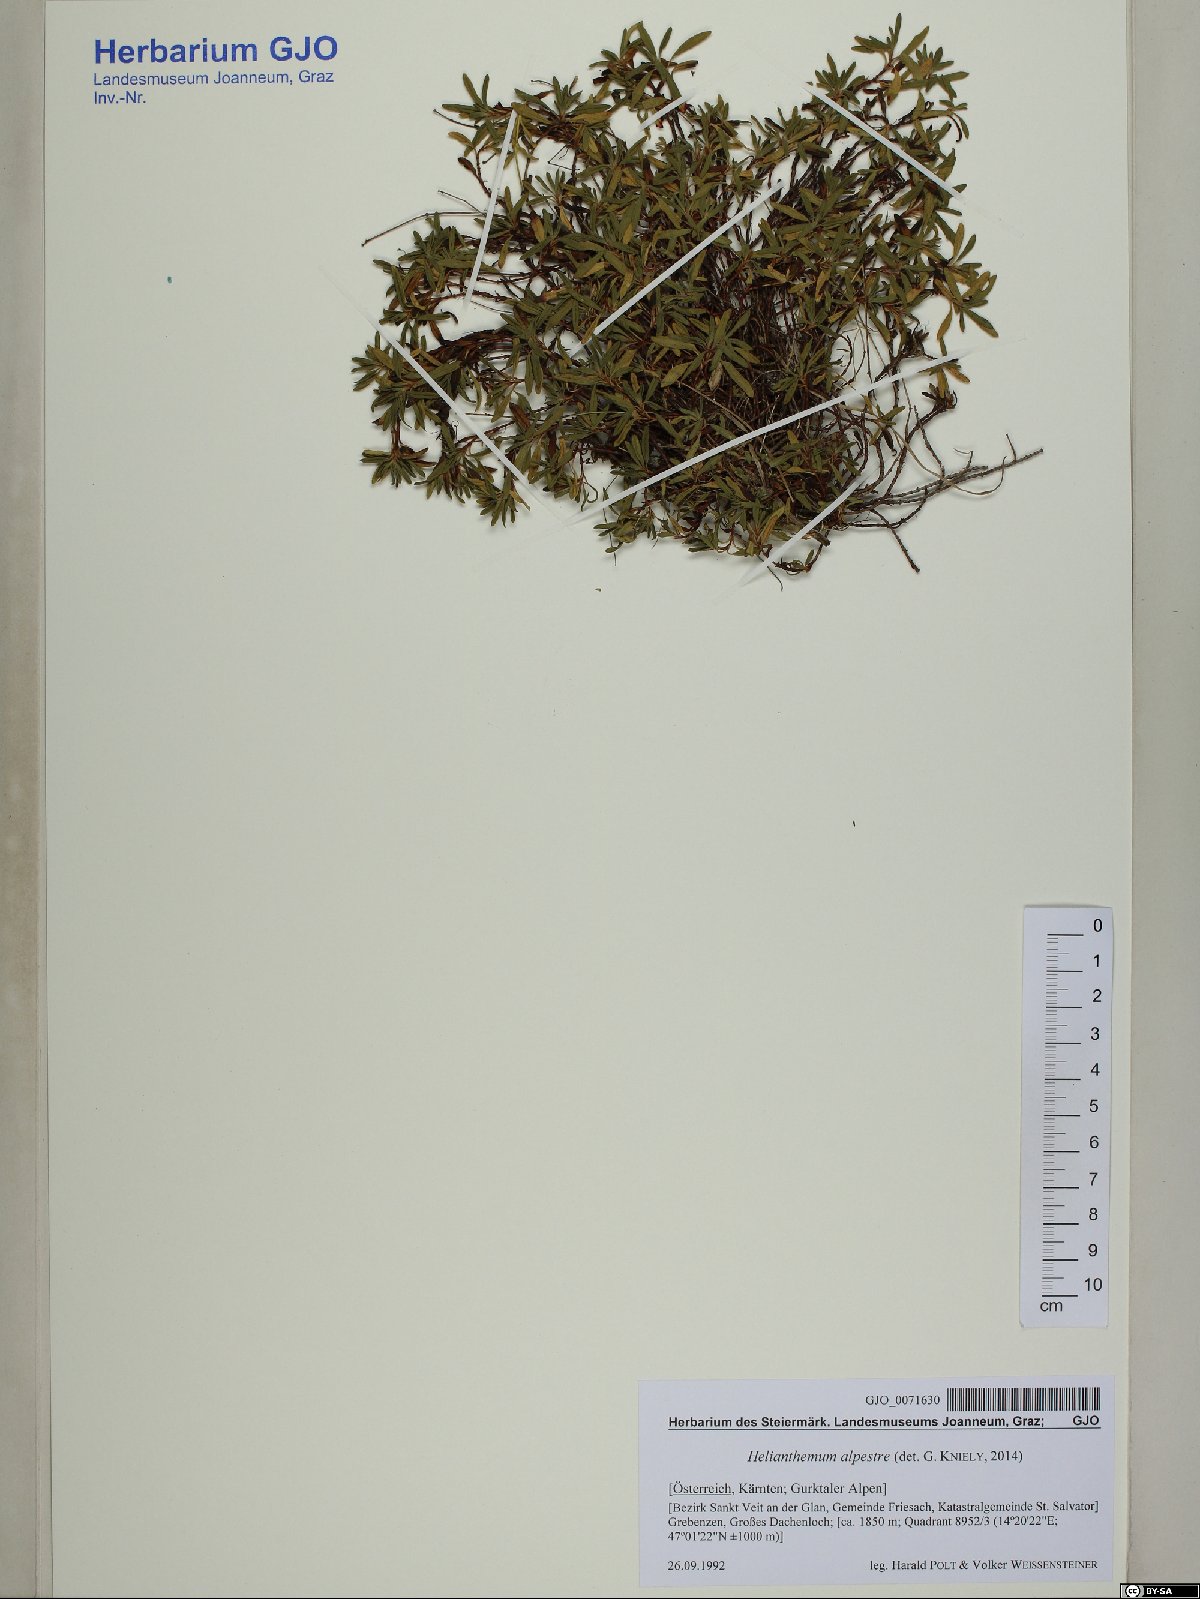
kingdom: Plantae
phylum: Tracheophyta
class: Magnoliopsida
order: Malvales
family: Cistaceae
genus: Helianthemum
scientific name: Helianthemum alpestre
